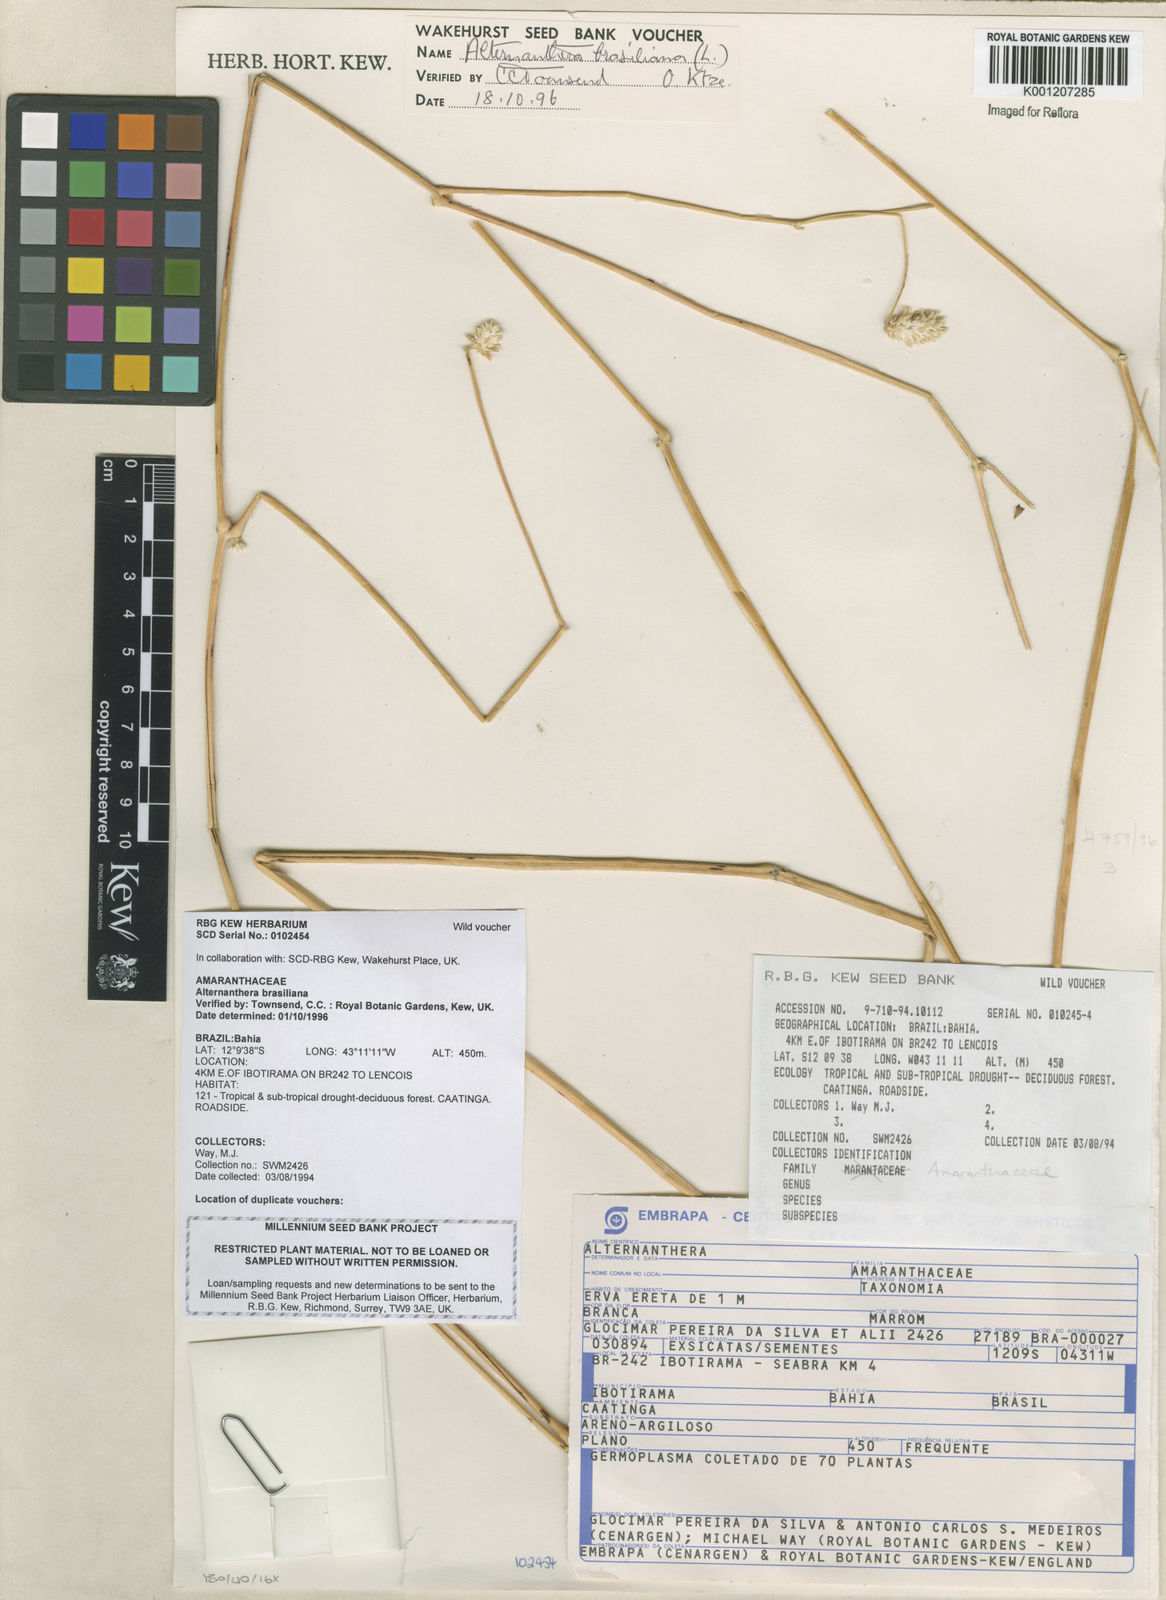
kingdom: Plantae
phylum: Tracheophyta
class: Magnoliopsida
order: Caryophyllales
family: Amaranthaceae
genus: Alternanthera
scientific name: Alternanthera brasiliana
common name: Brazilian joyweed
